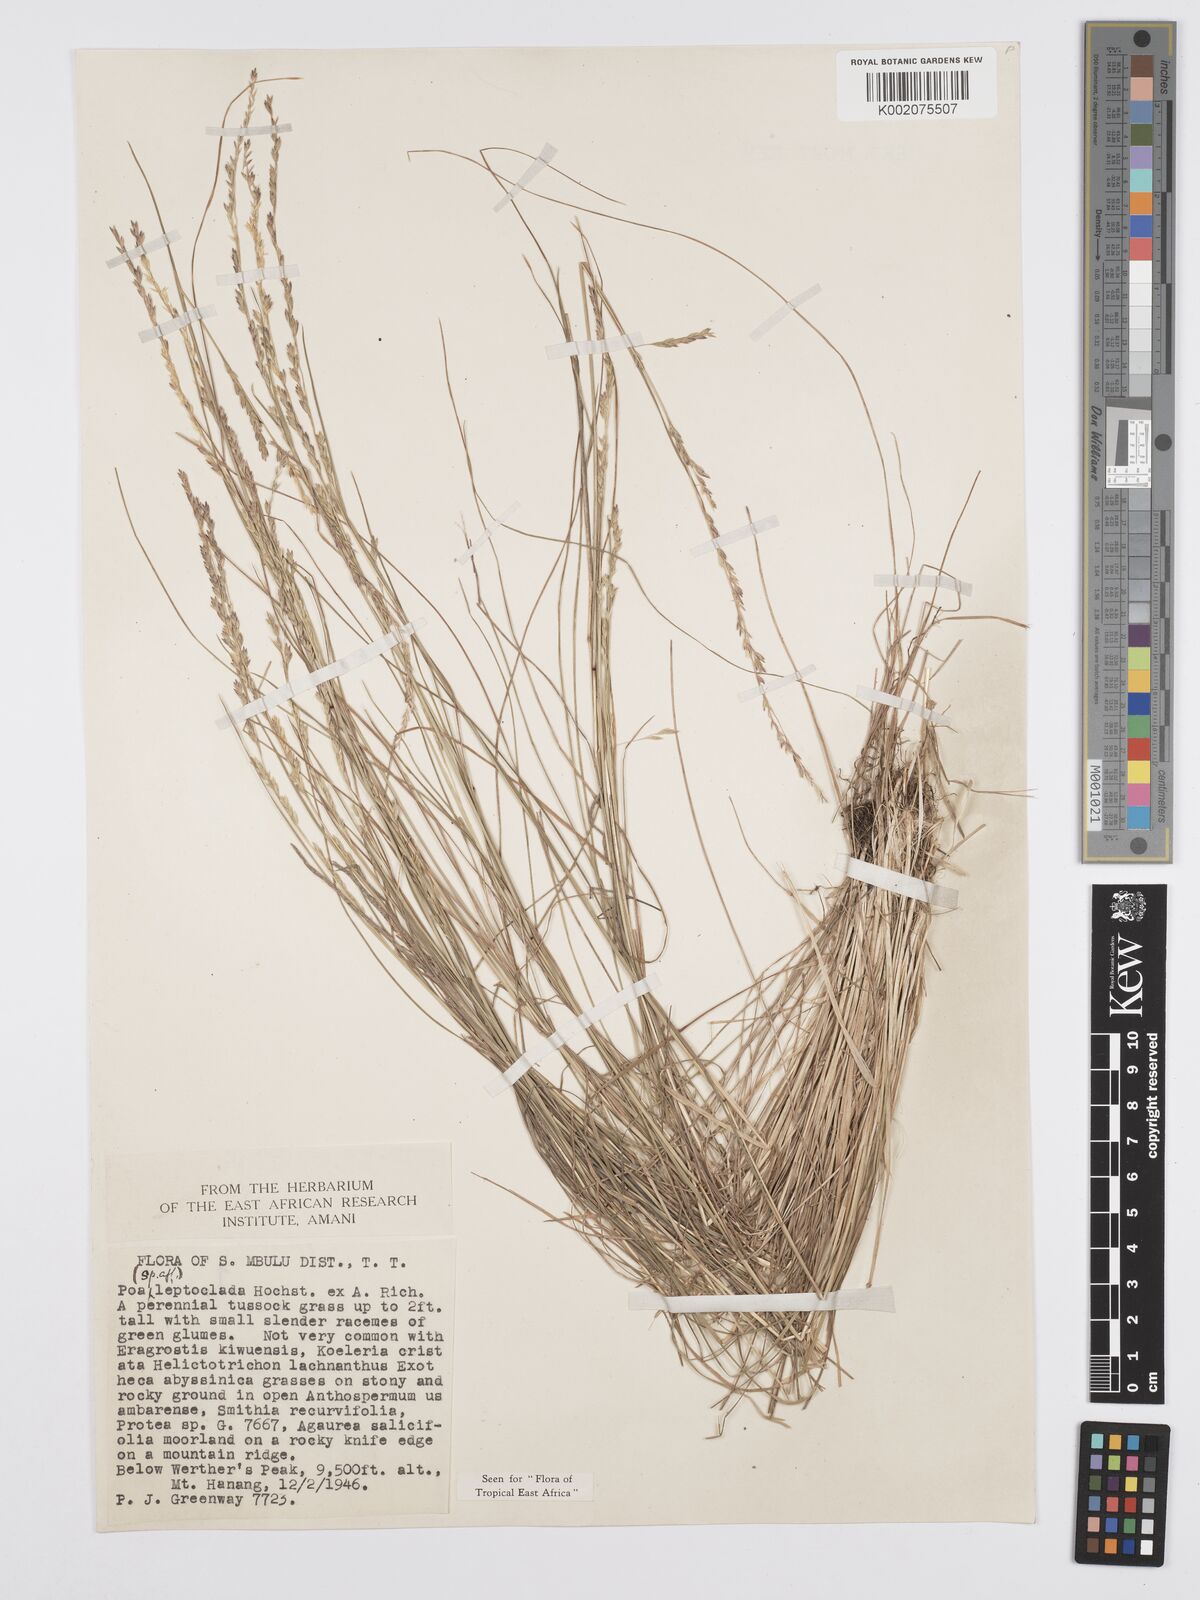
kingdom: Plantae
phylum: Tracheophyta
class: Liliopsida
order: Poales
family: Poaceae
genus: Poa
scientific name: Poa leptoclada
